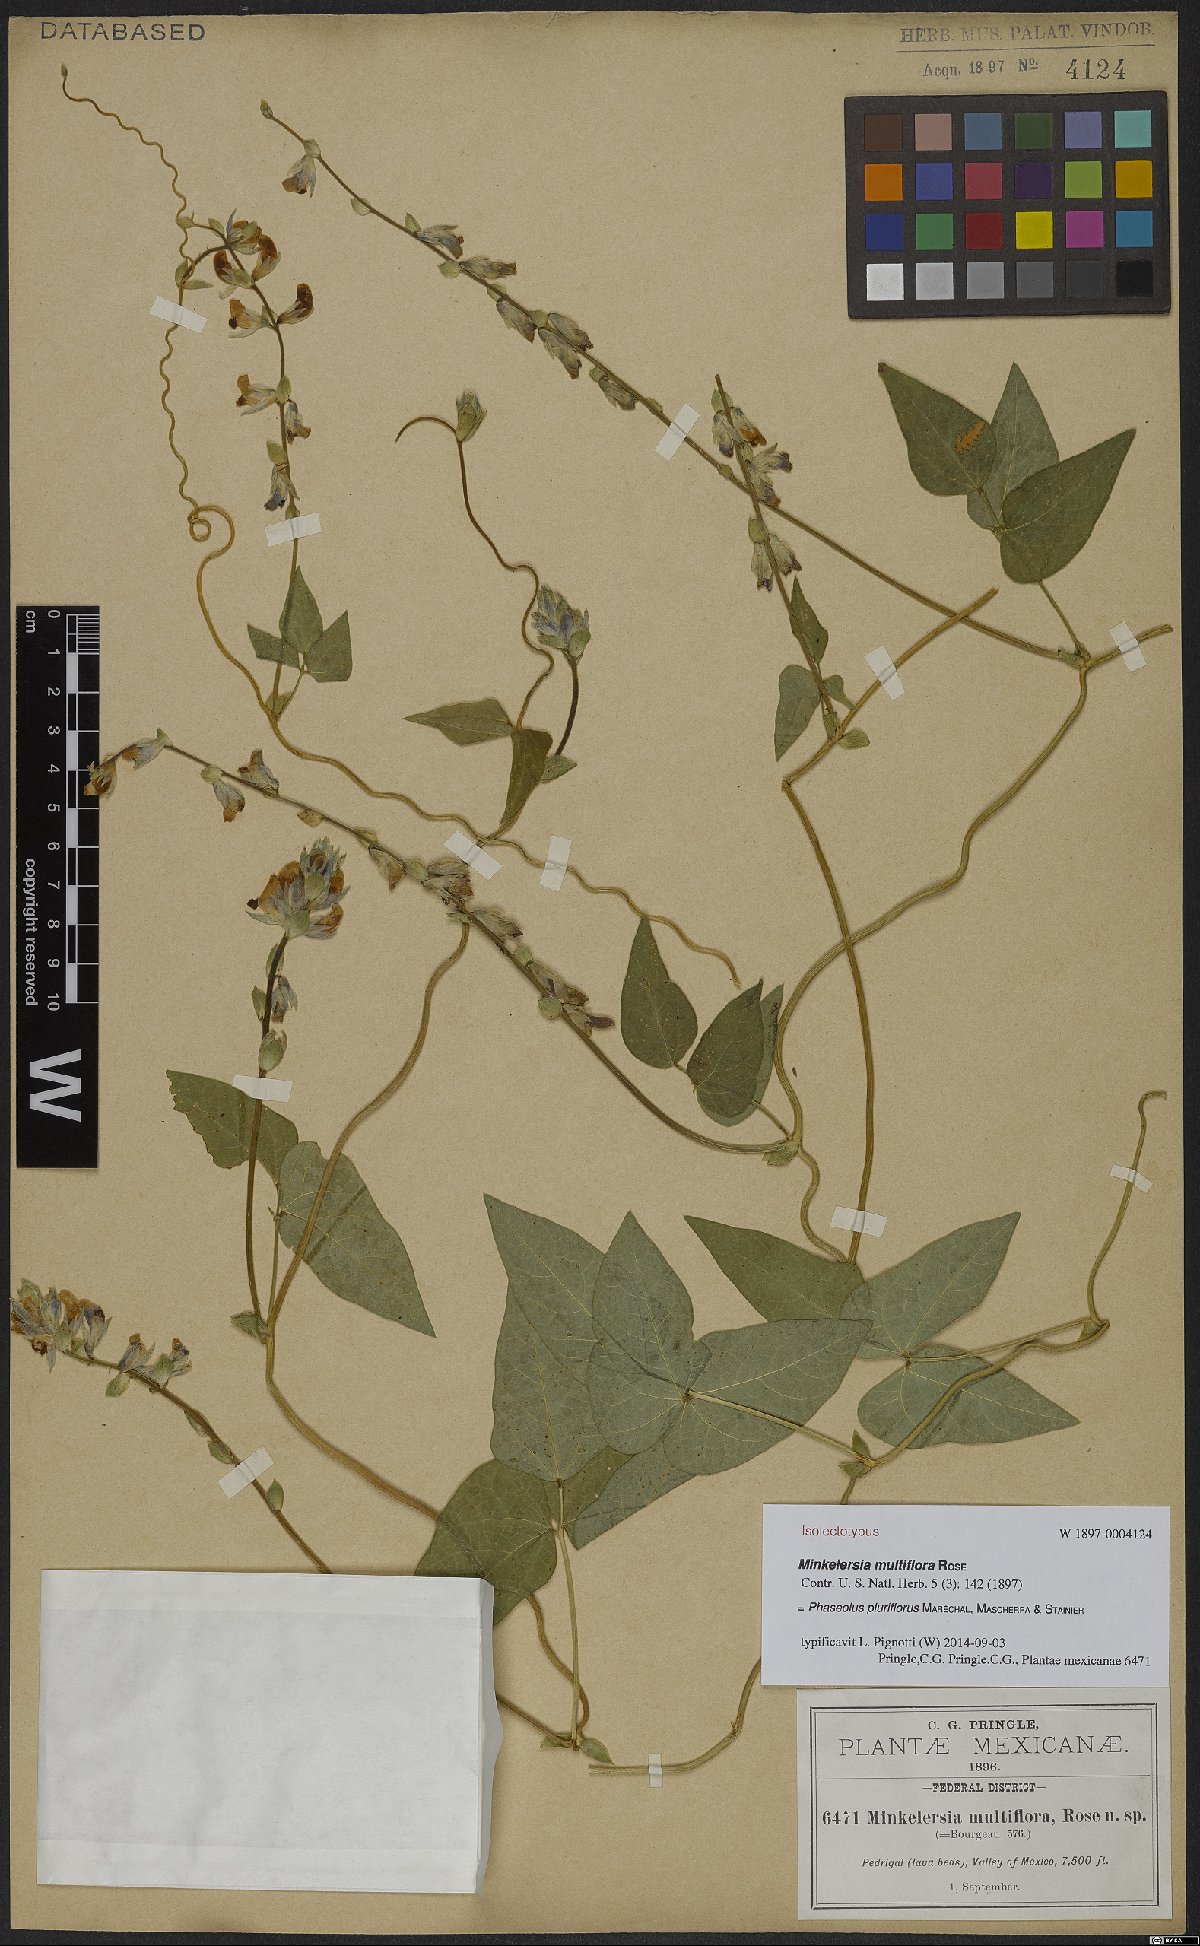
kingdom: Plantae
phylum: Tracheophyta
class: Magnoliopsida
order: Fabales
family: Fabaceae
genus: Phaseolus
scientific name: Phaseolus vulcanicus
